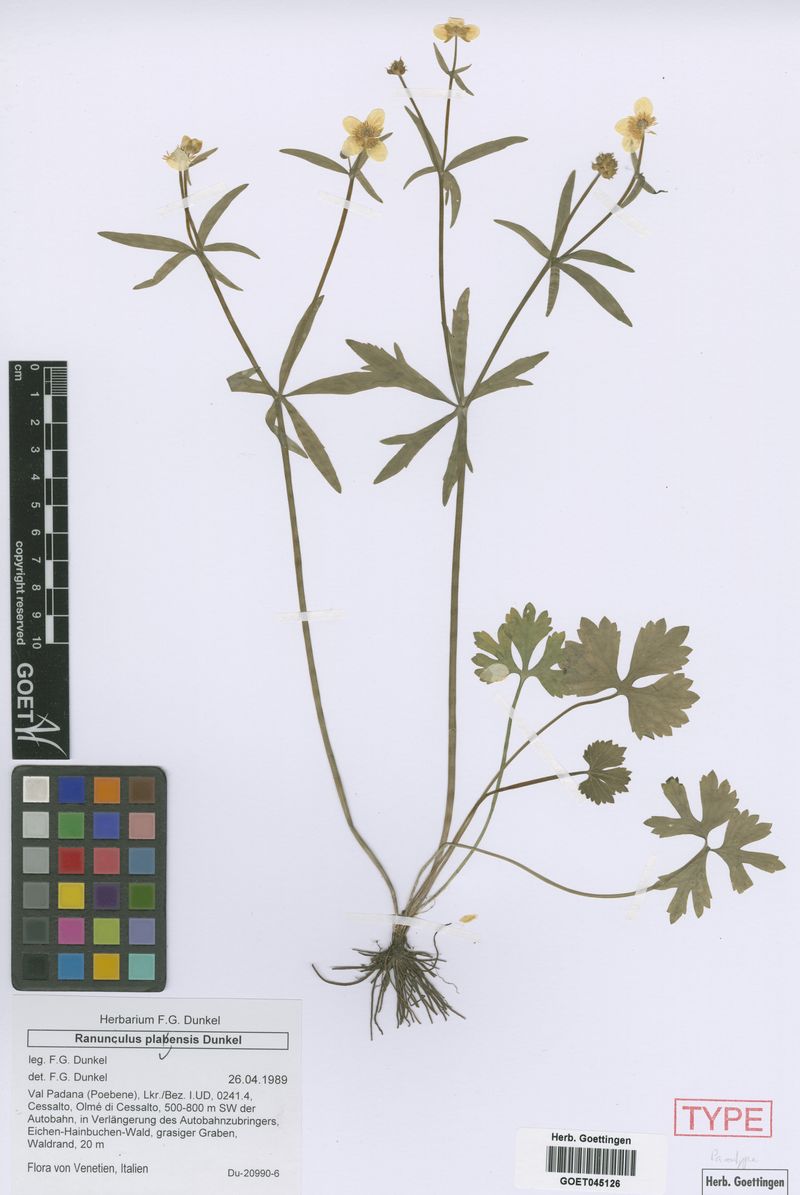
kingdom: Plantae
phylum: Tracheophyta
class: Magnoliopsida
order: Ranunculales
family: Ranunculaceae
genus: Ranunculus
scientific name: Ranunculus plavensis
